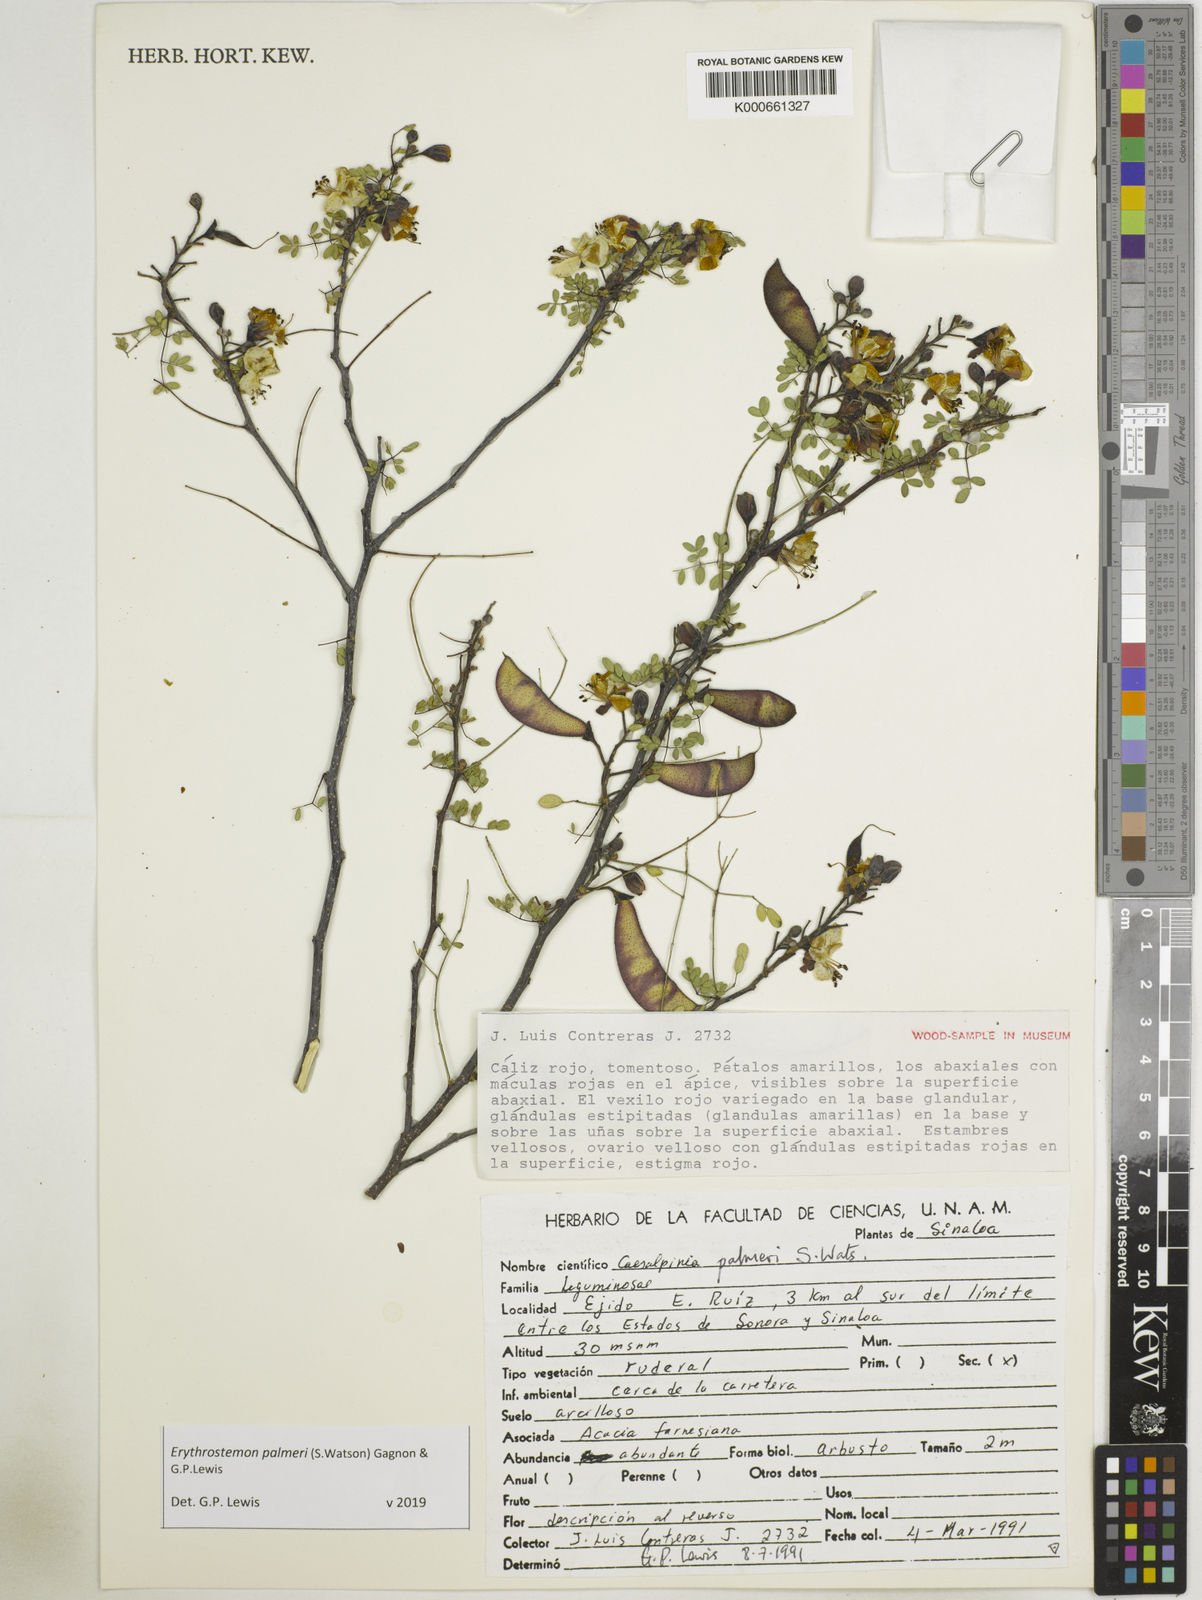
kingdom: Plantae
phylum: Tracheophyta
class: Magnoliopsida
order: Fabales
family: Fabaceae
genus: Erythrostemon
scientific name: Erythrostemon palmeri
